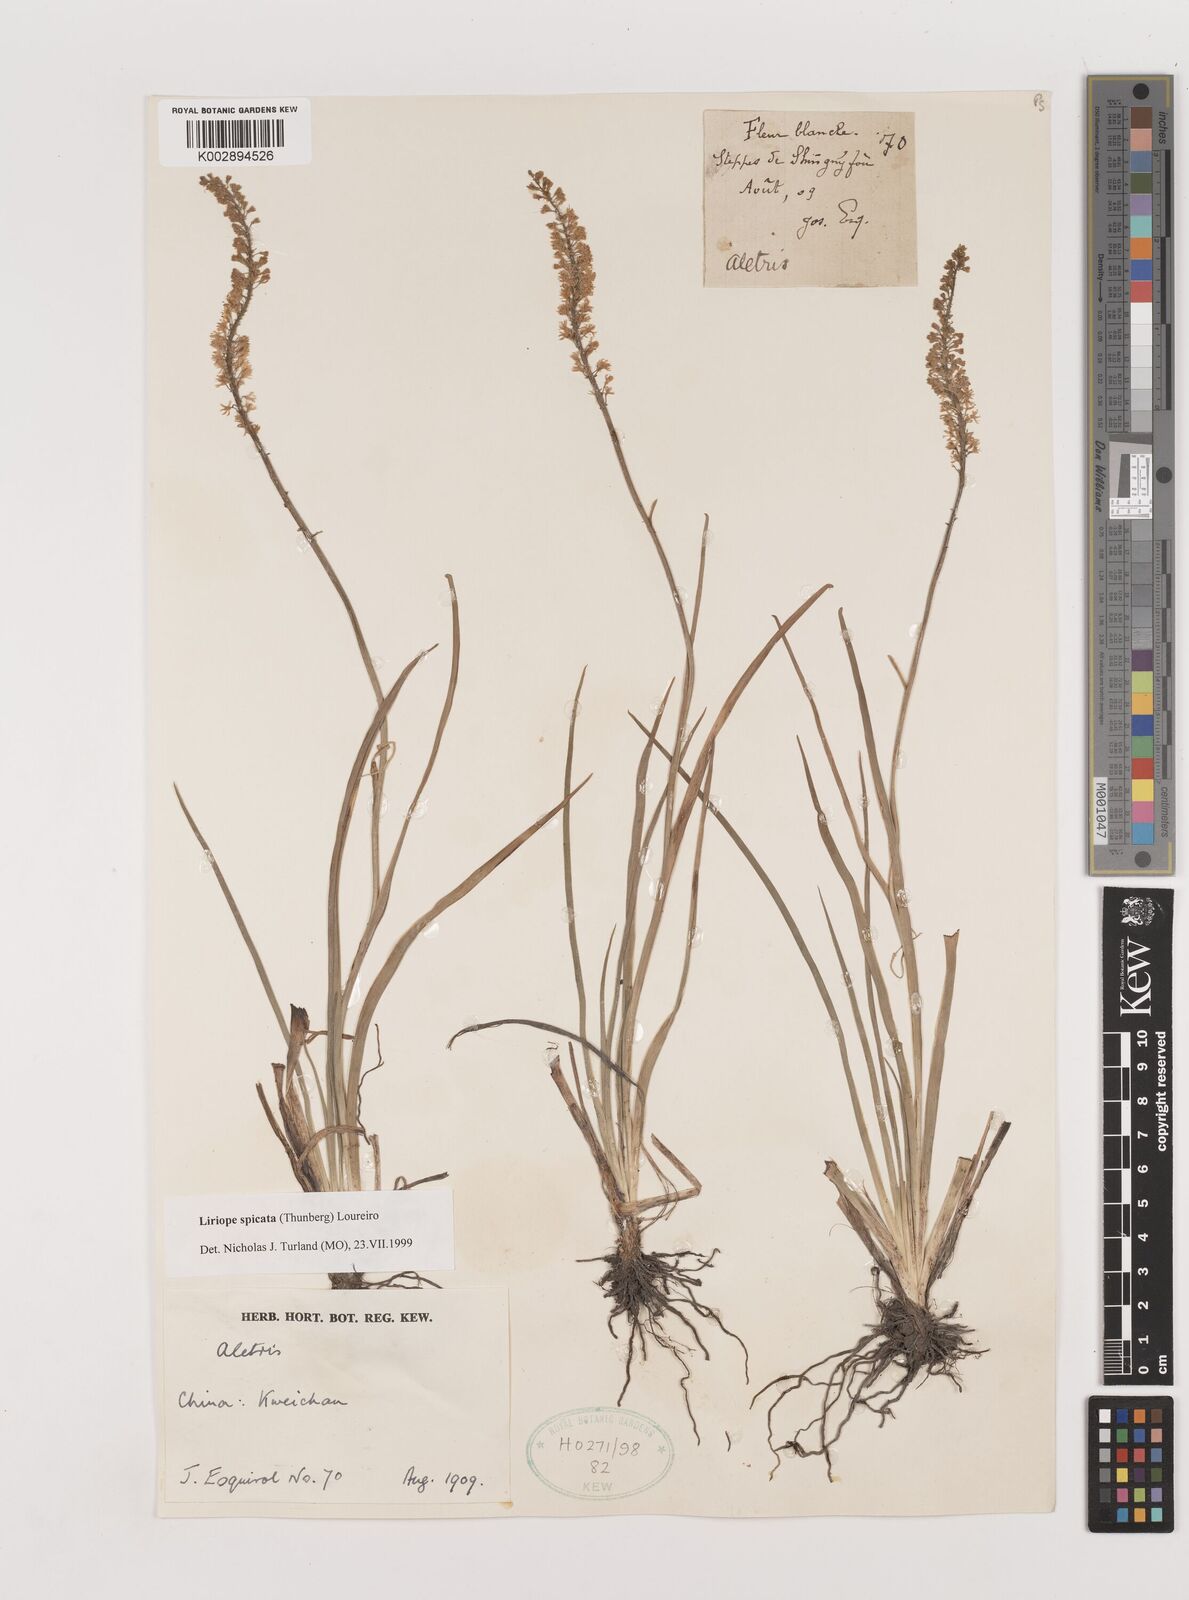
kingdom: Plantae
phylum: Tracheophyta
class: Liliopsida
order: Asparagales
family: Asparagaceae
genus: Liriope
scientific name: Liriope spicata
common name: Creeping liriope
